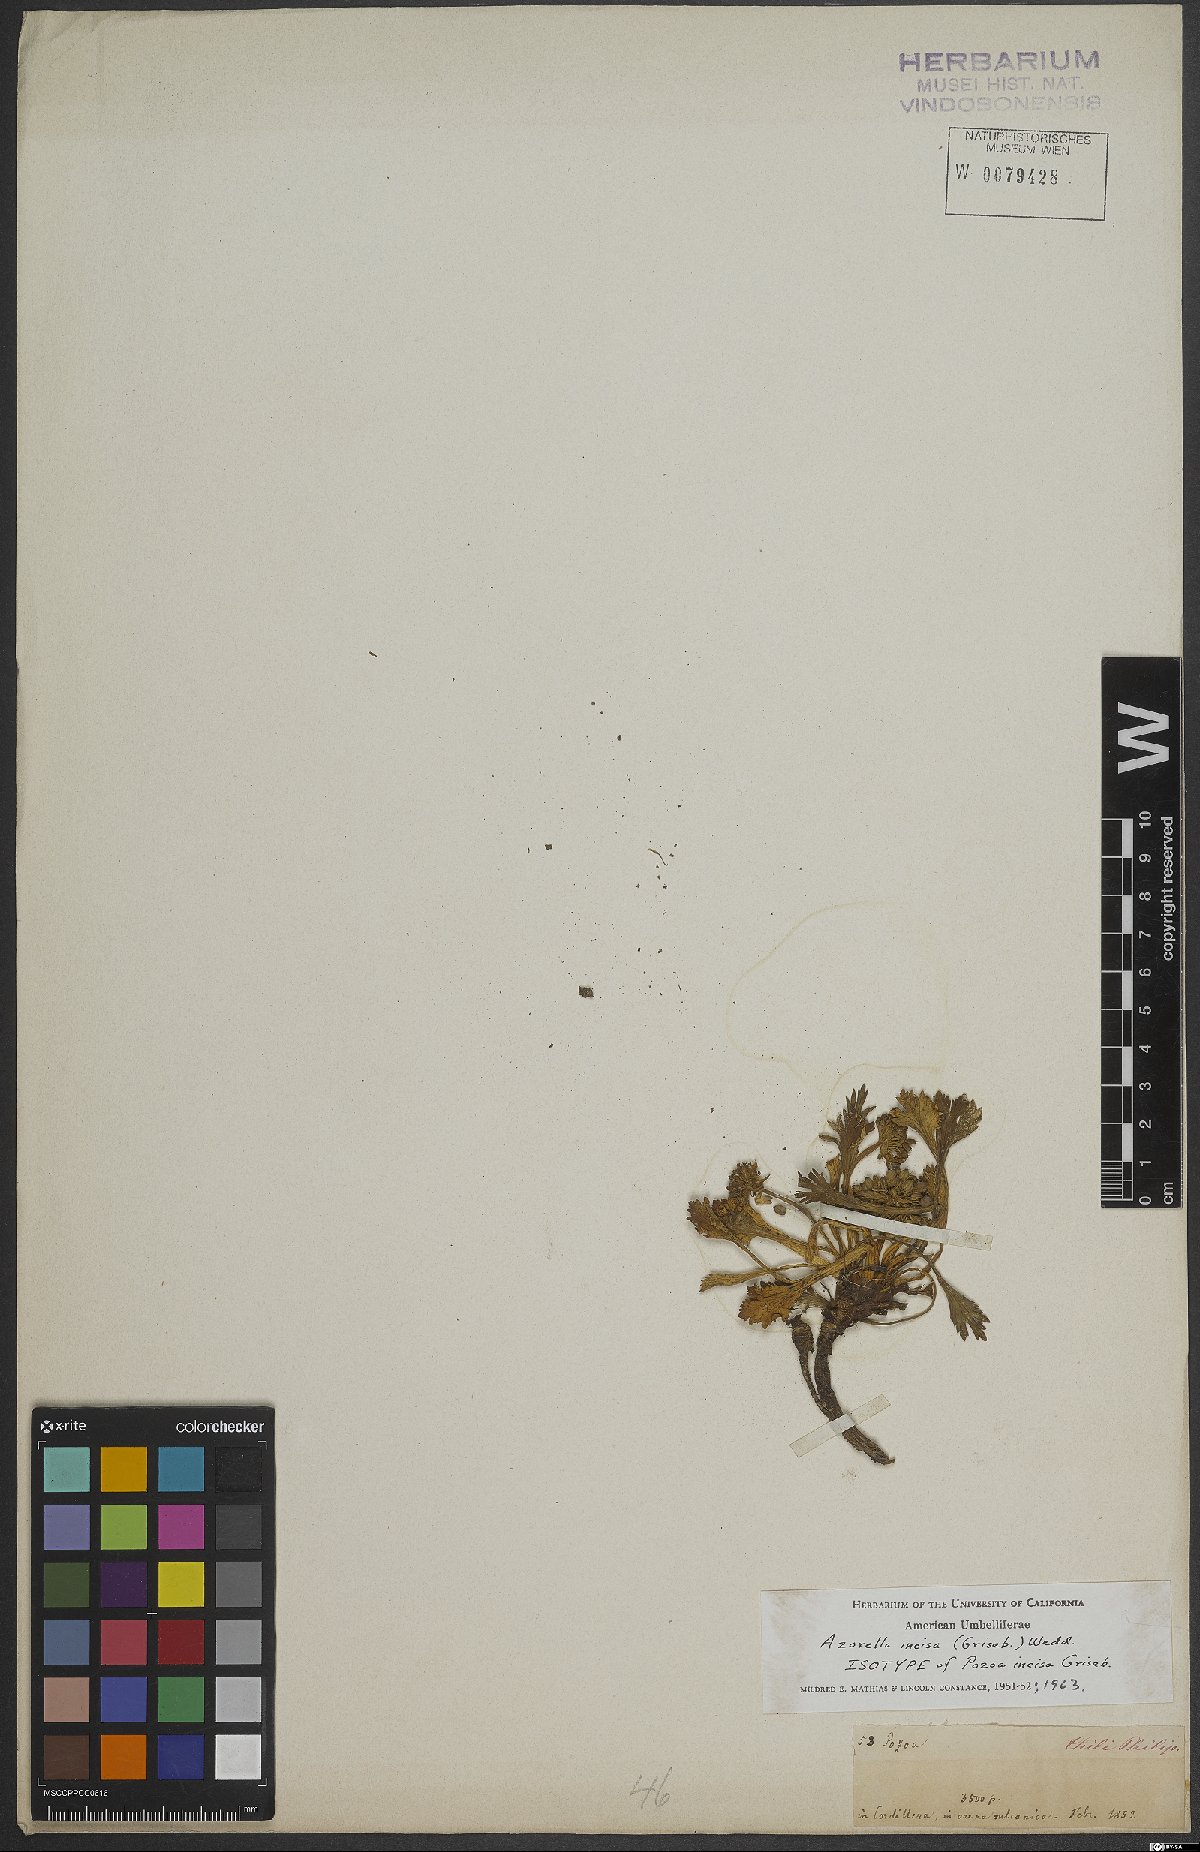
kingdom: Plantae
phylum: Tracheophyta
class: Magnoliopsida
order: Apiales
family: Apiaceae
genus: Azorella
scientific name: Azorella diversifolia
